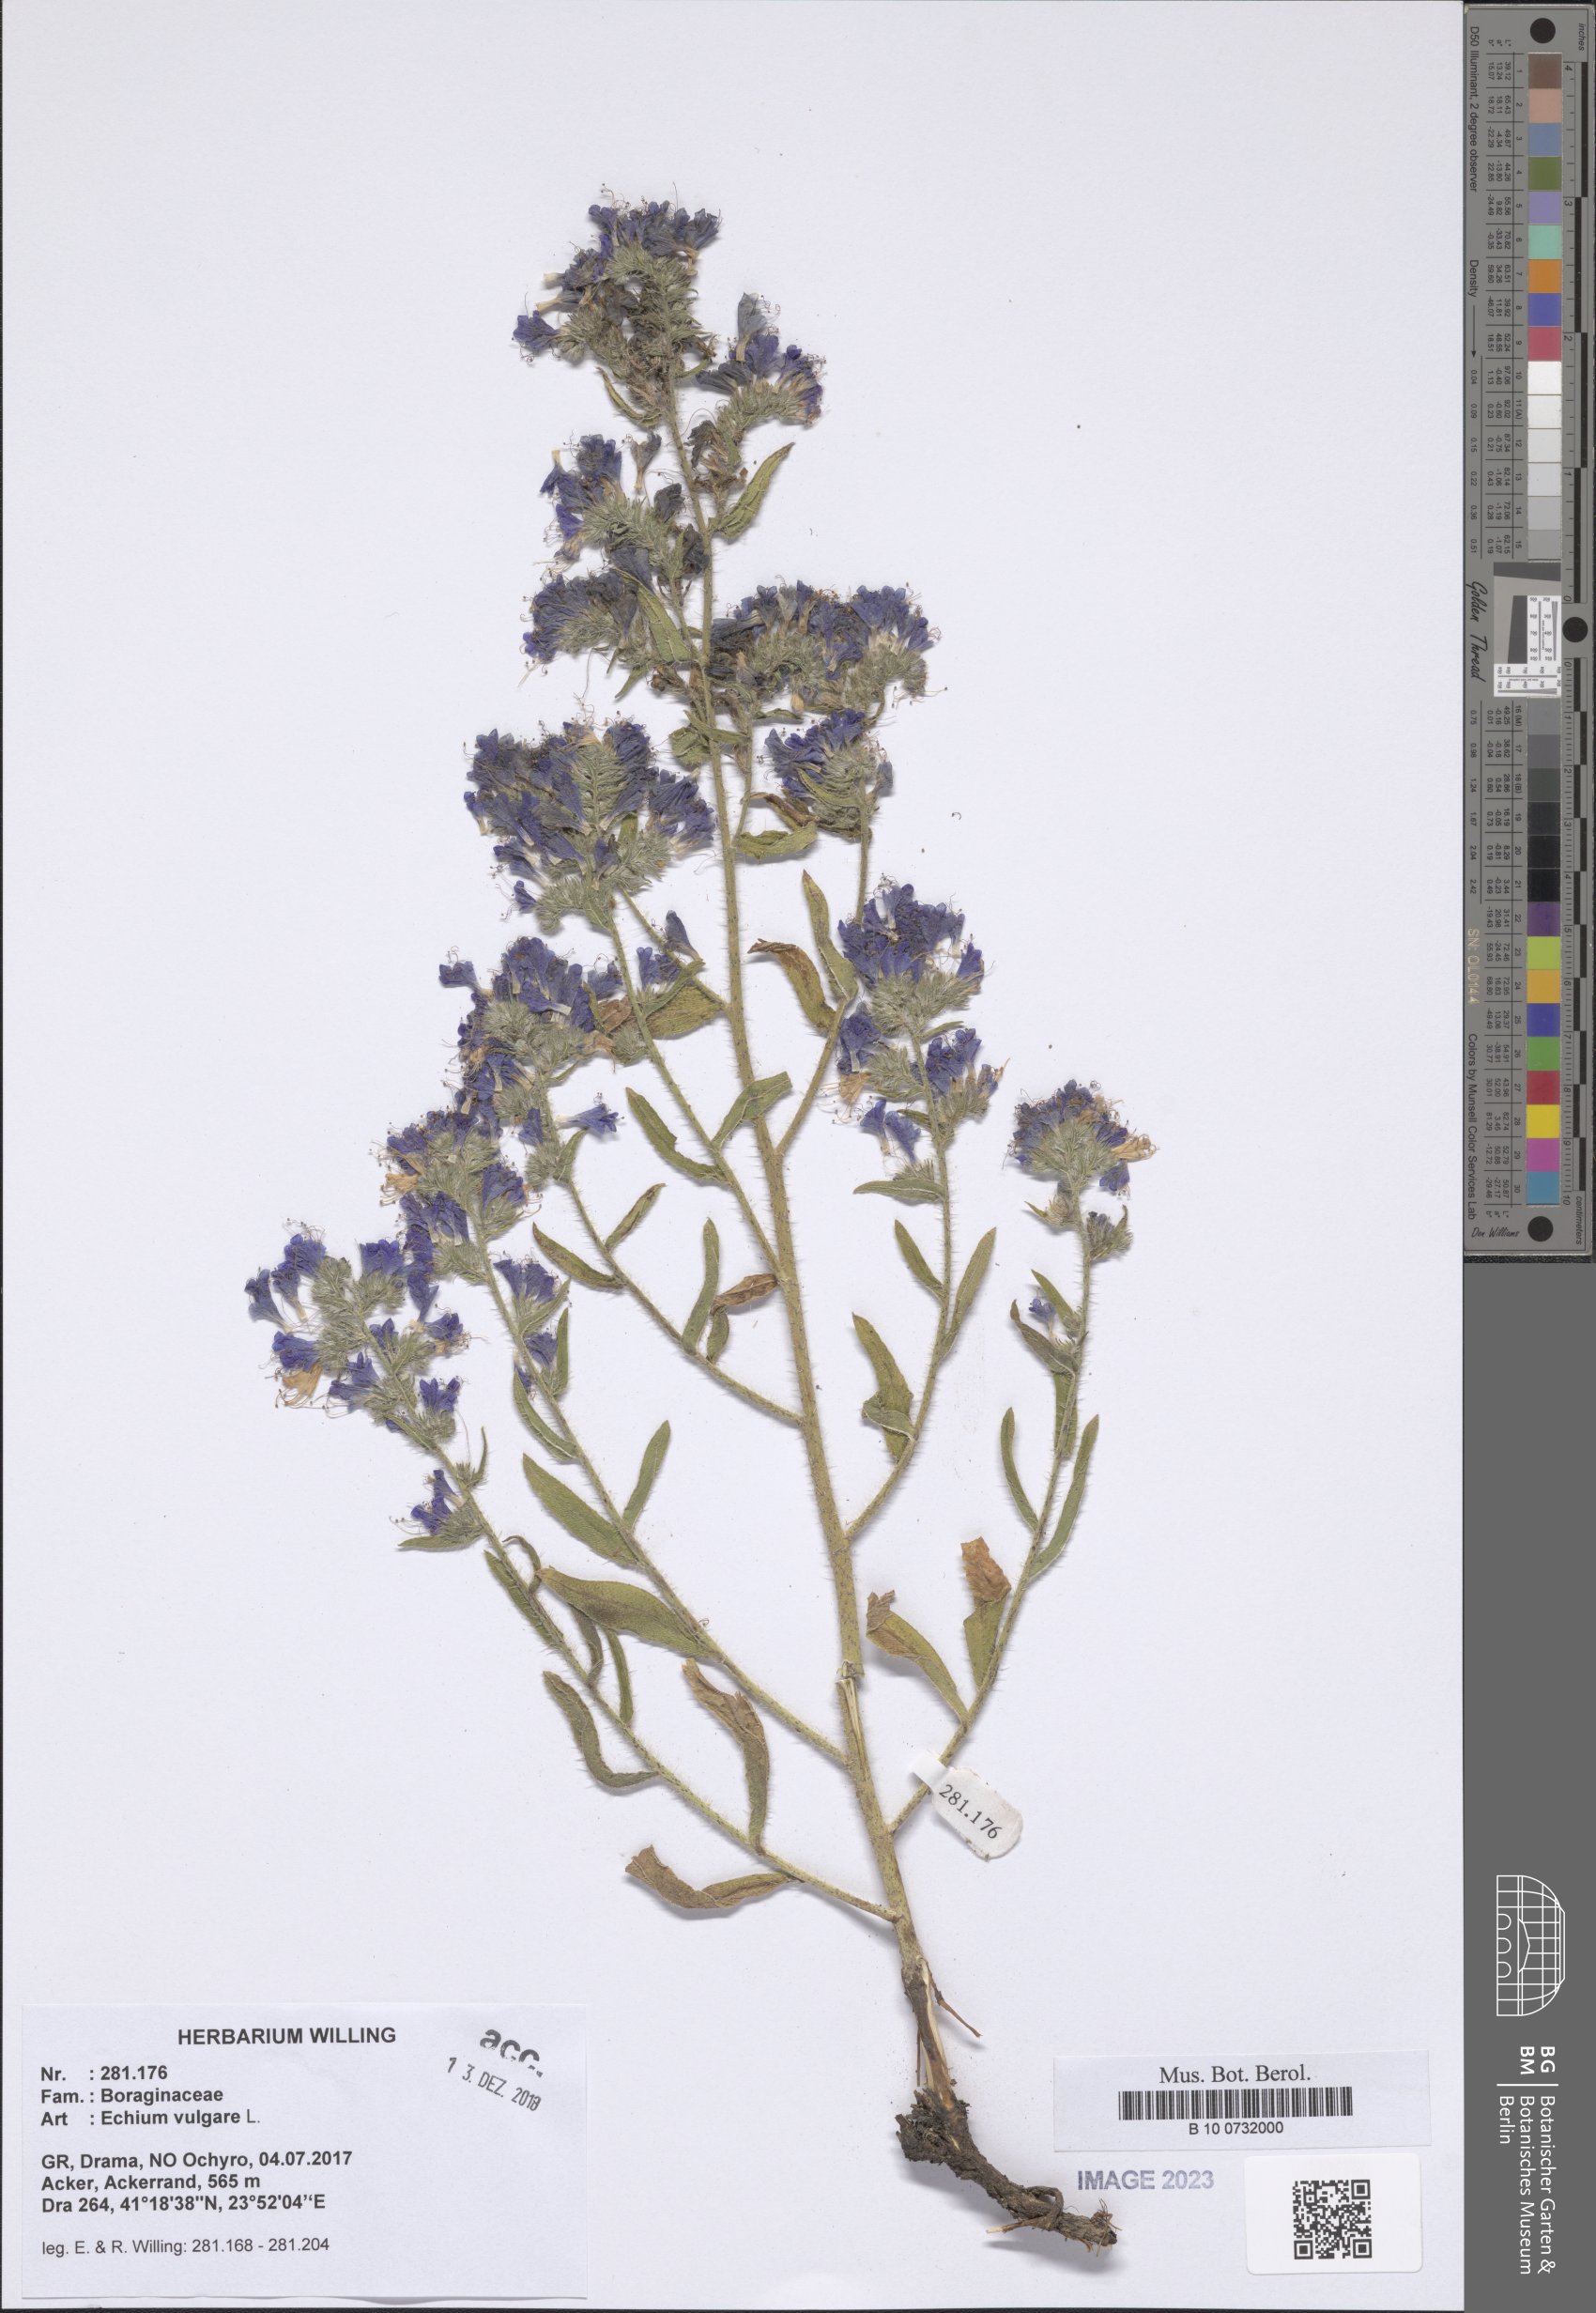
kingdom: Plantae
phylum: Tracheophyta
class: Magnoliopsida
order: Boraginales
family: Boraginaceae
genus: Echium
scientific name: Echium vulgare
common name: Common viper's bugloss
